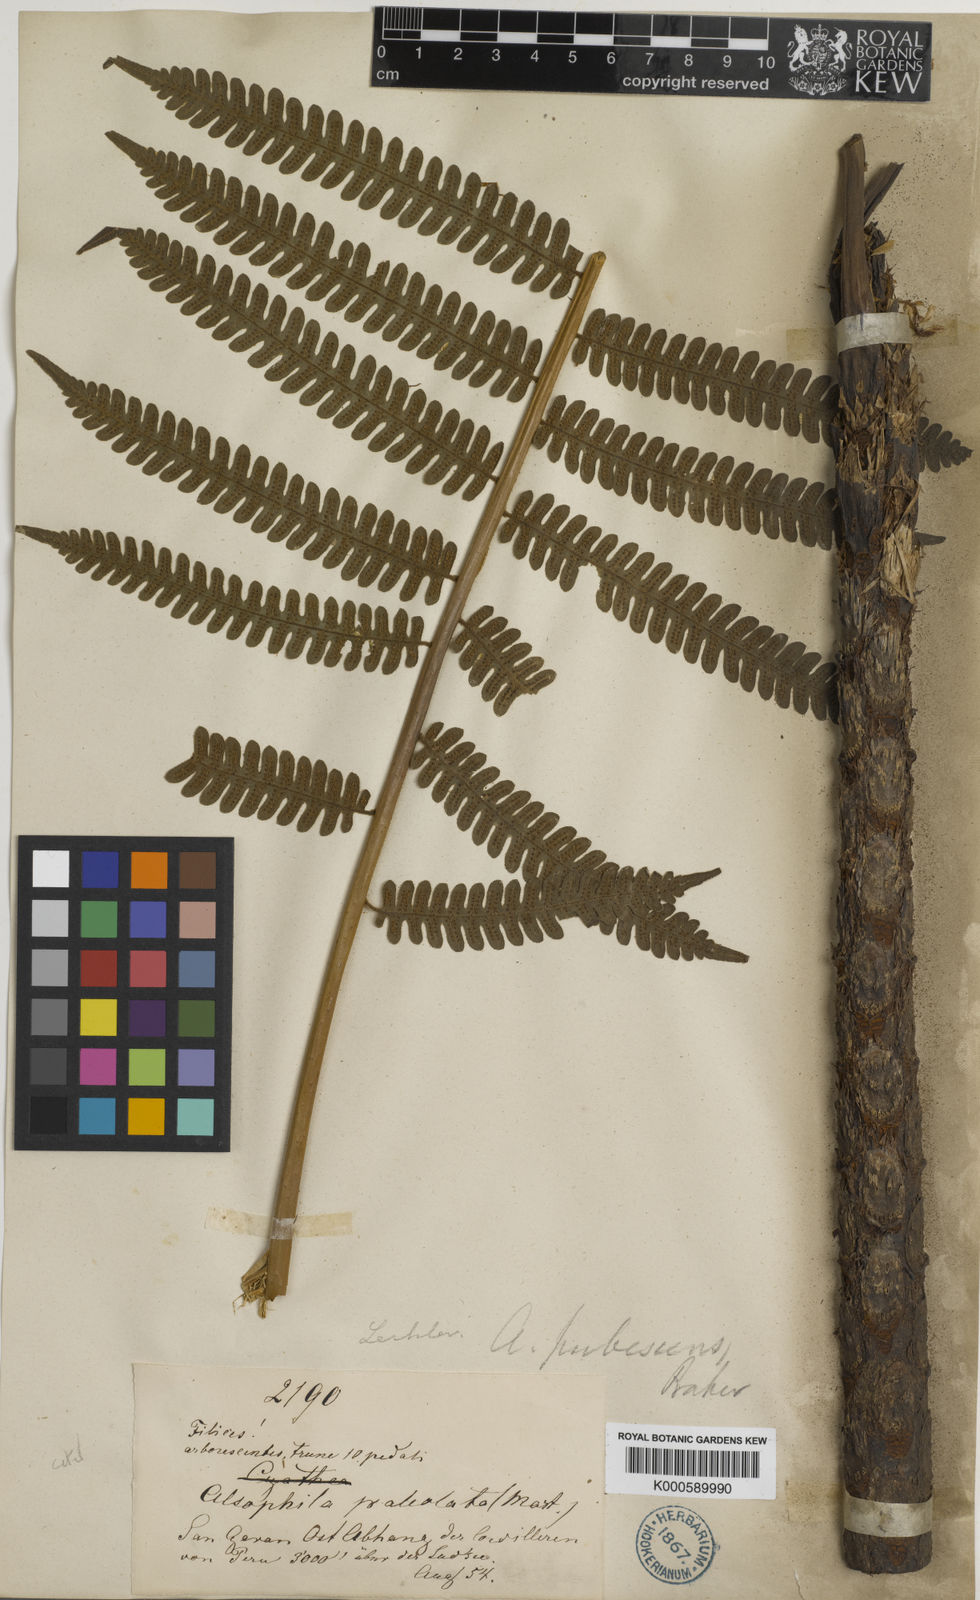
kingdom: Plantae
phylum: Tracheophyta
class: Polypodiopsida
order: Cyatheales
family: Cyatheaceae
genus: Alsophila
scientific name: Alsophila auneae
